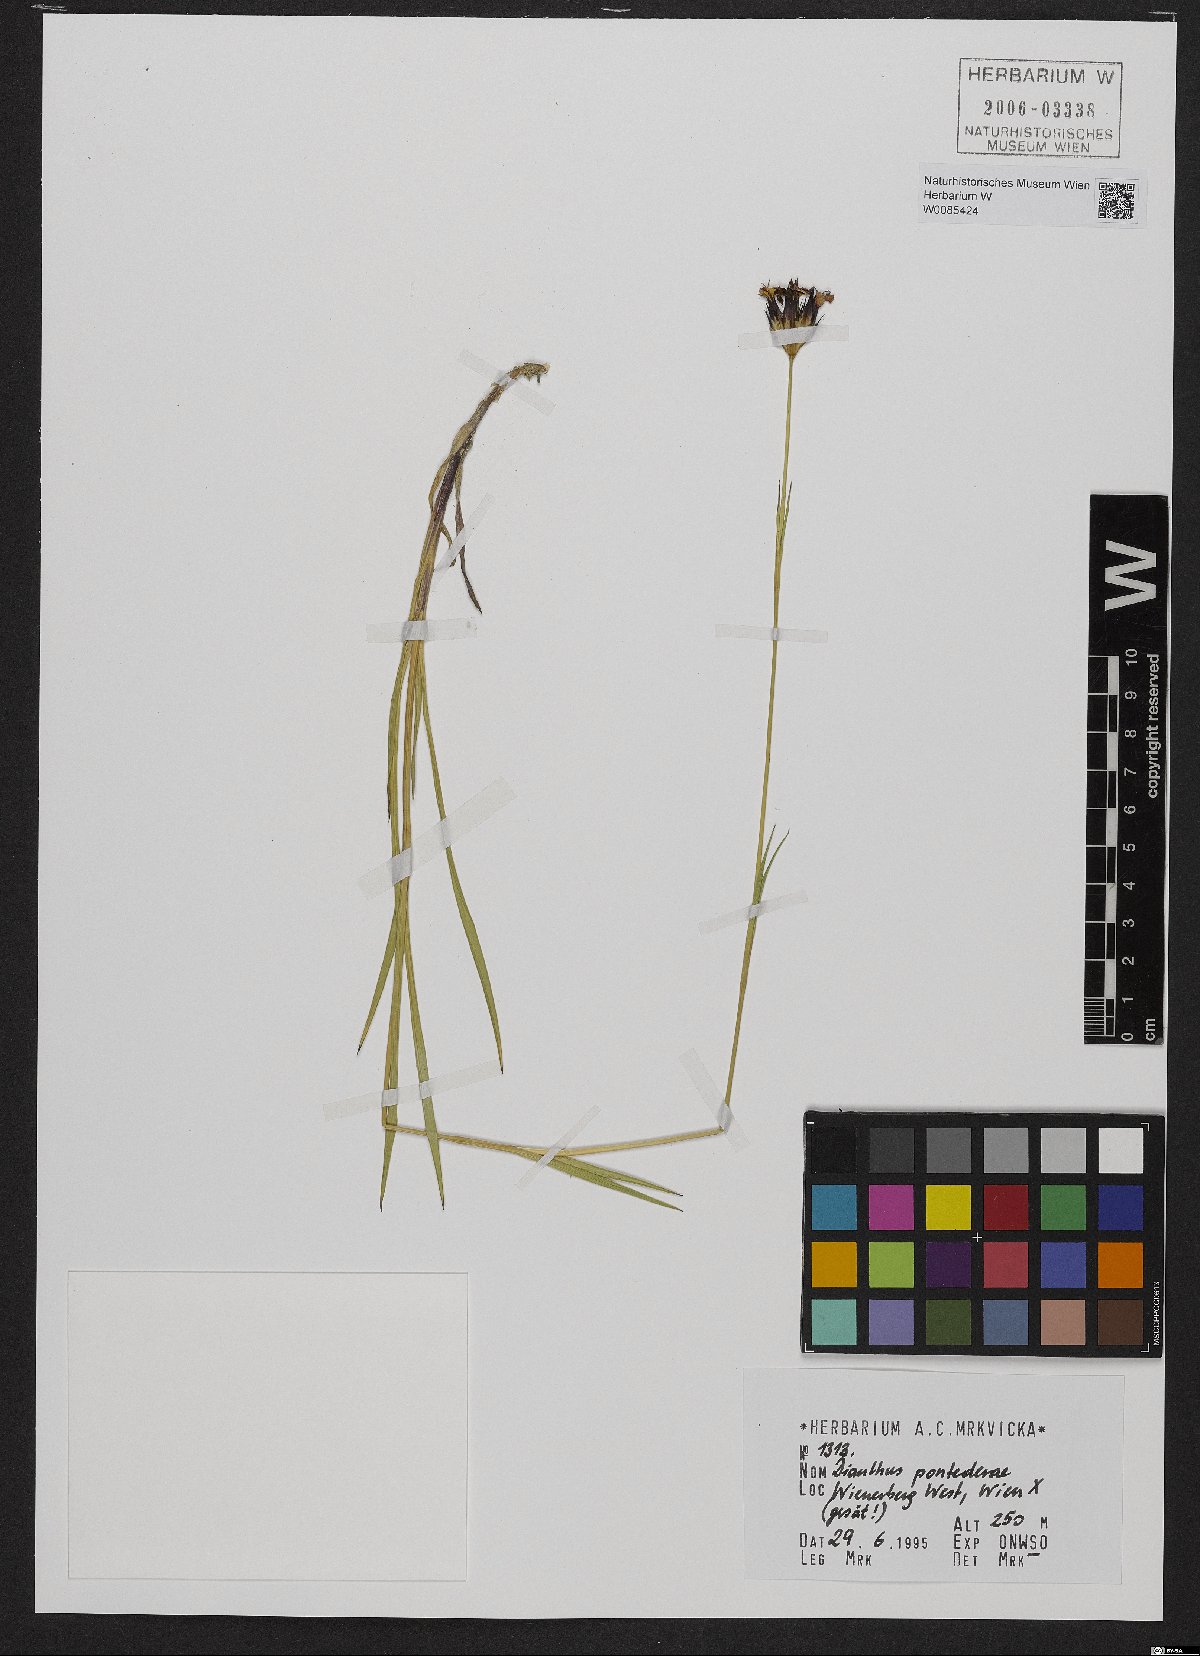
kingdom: Plantae
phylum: Tracheophyta
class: Magnoliopsida
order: Caryophyllales
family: Caryophyllaceae
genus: Dianthus
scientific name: Dianthus pontederae
